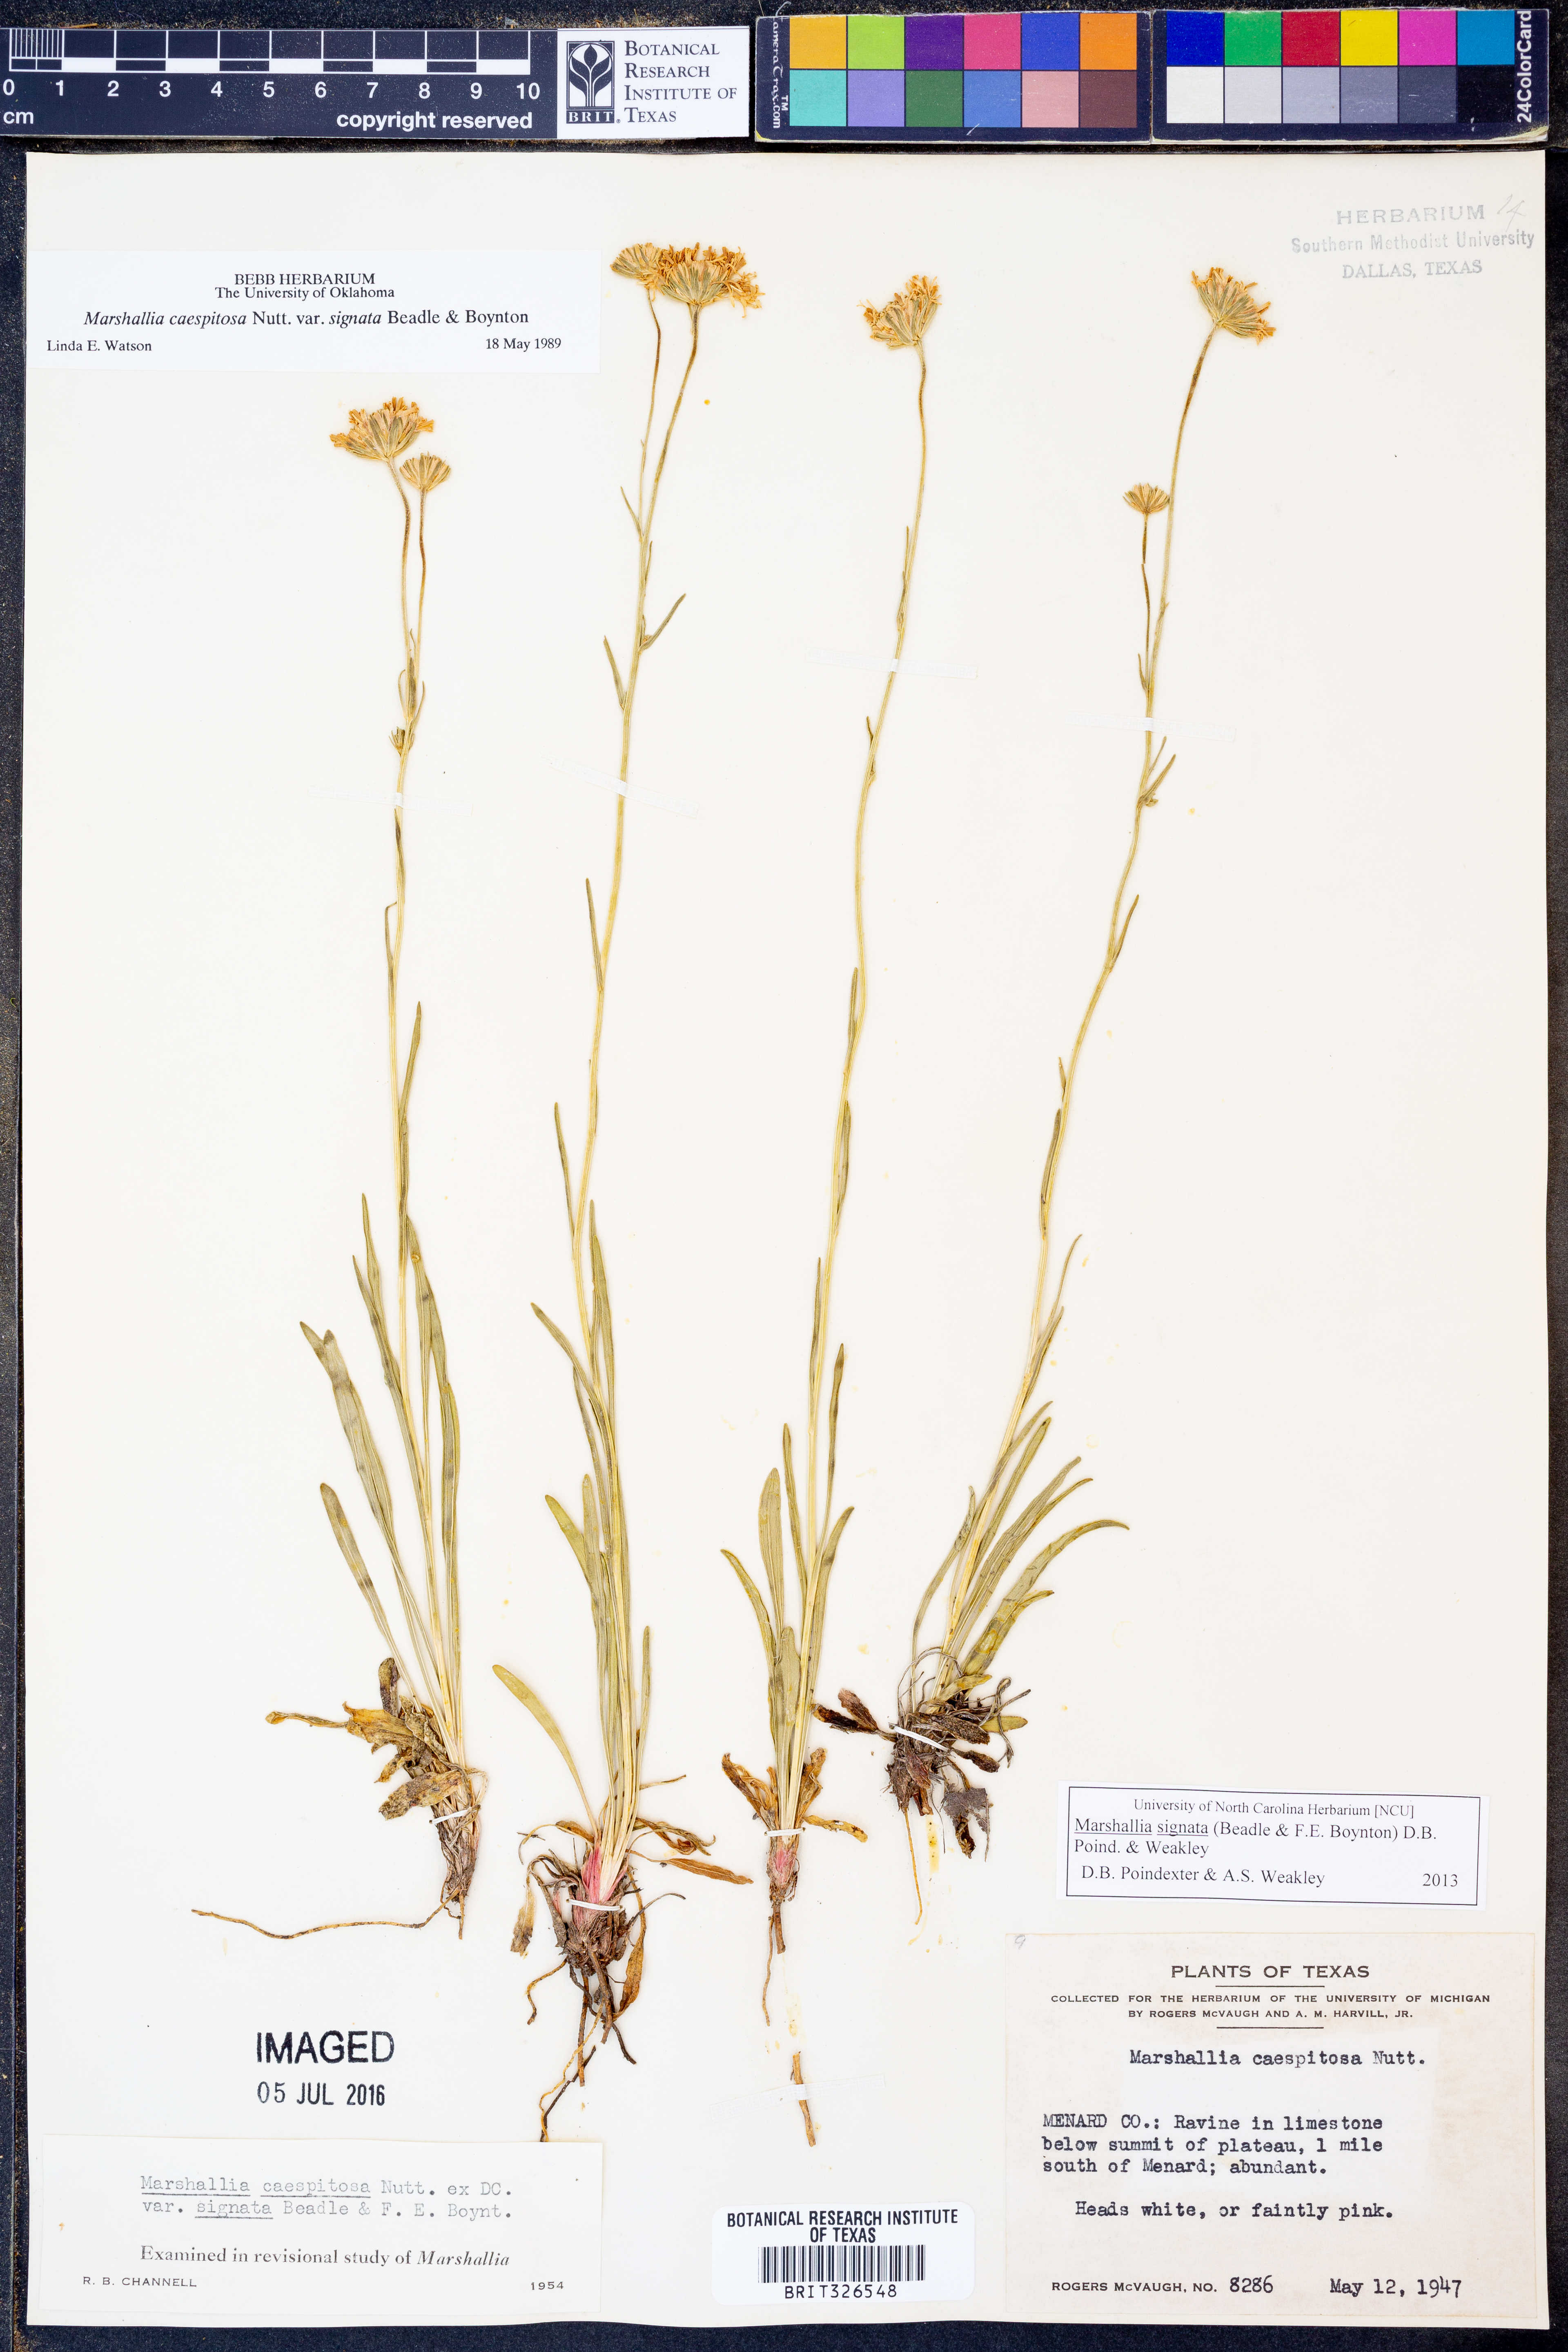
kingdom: Plantae
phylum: Tracheophyta
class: Magnoliopsida
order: Asterales
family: Asteraceae
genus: Marshallia
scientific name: Marshallia
